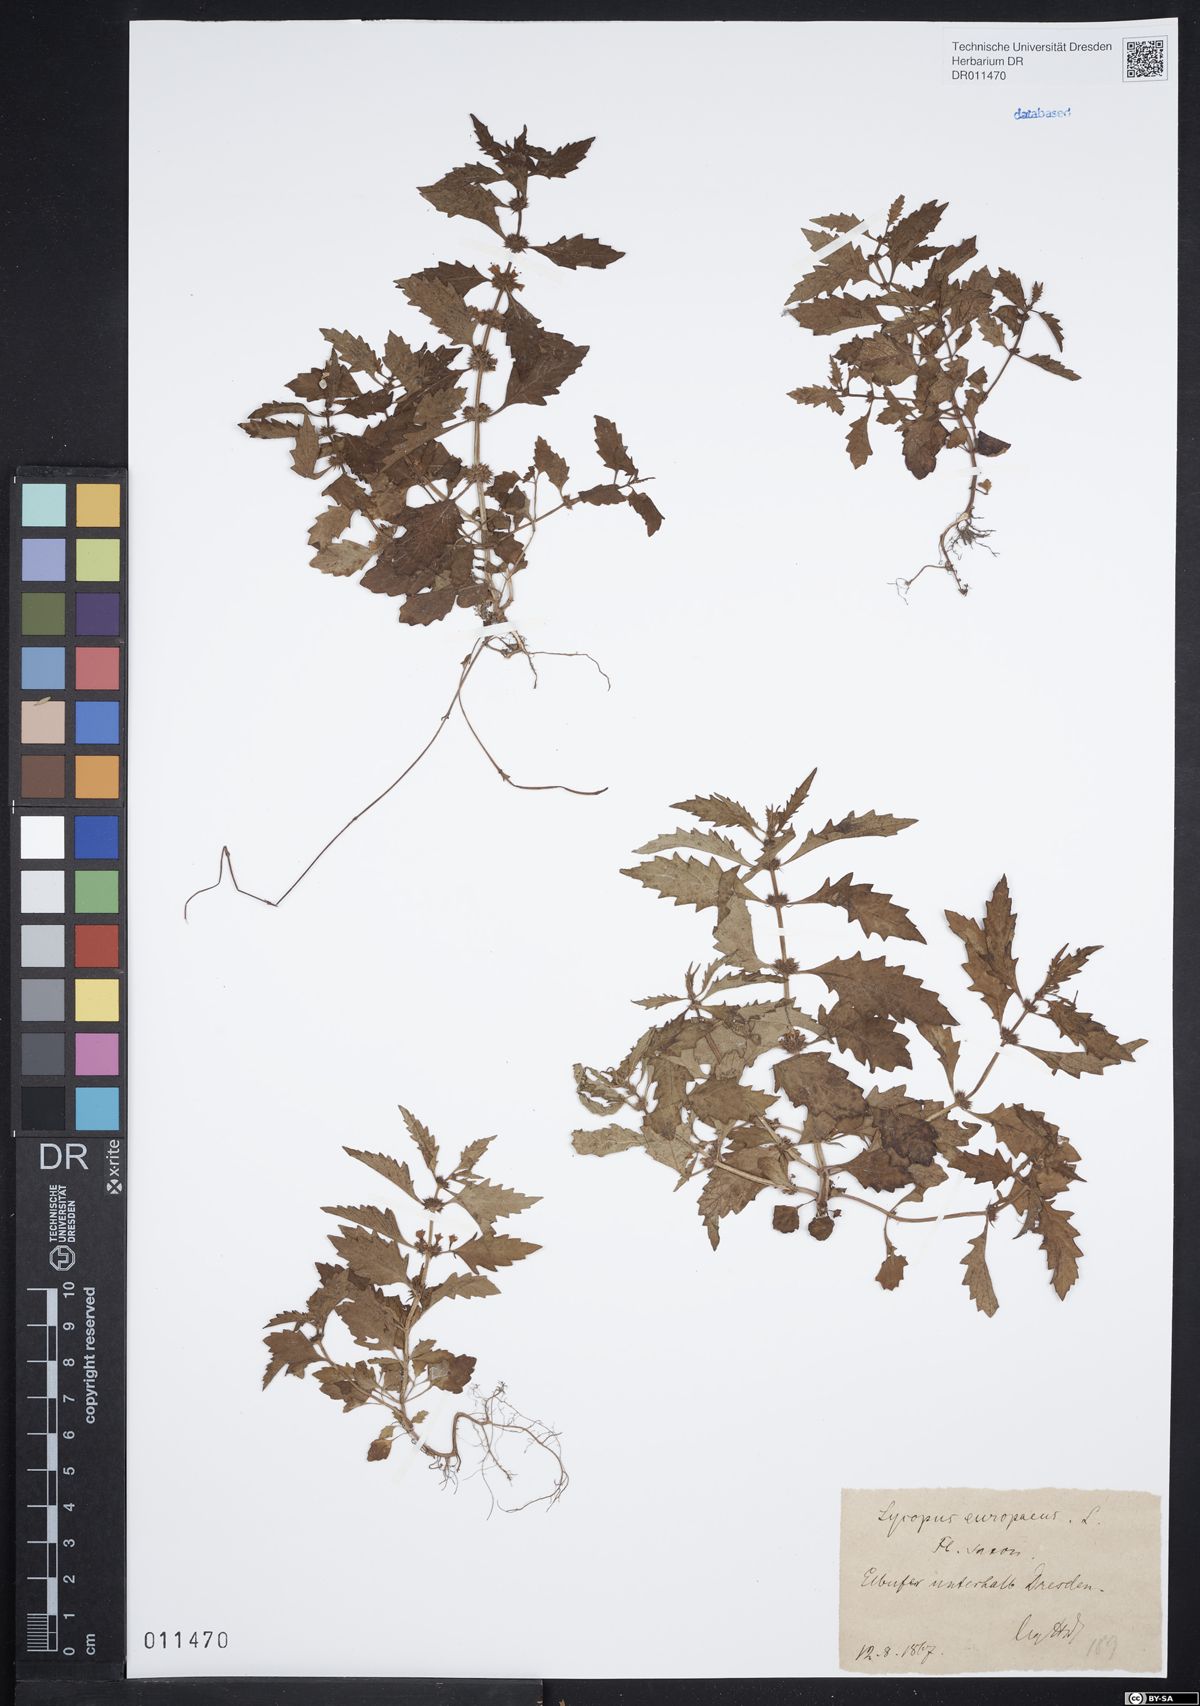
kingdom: Plantae
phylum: Tracheophyta
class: Magnoliopsida
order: Lamiales
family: Lamiaceae
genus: Lycopus
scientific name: Lycopus europaeus
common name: European bugleweed
